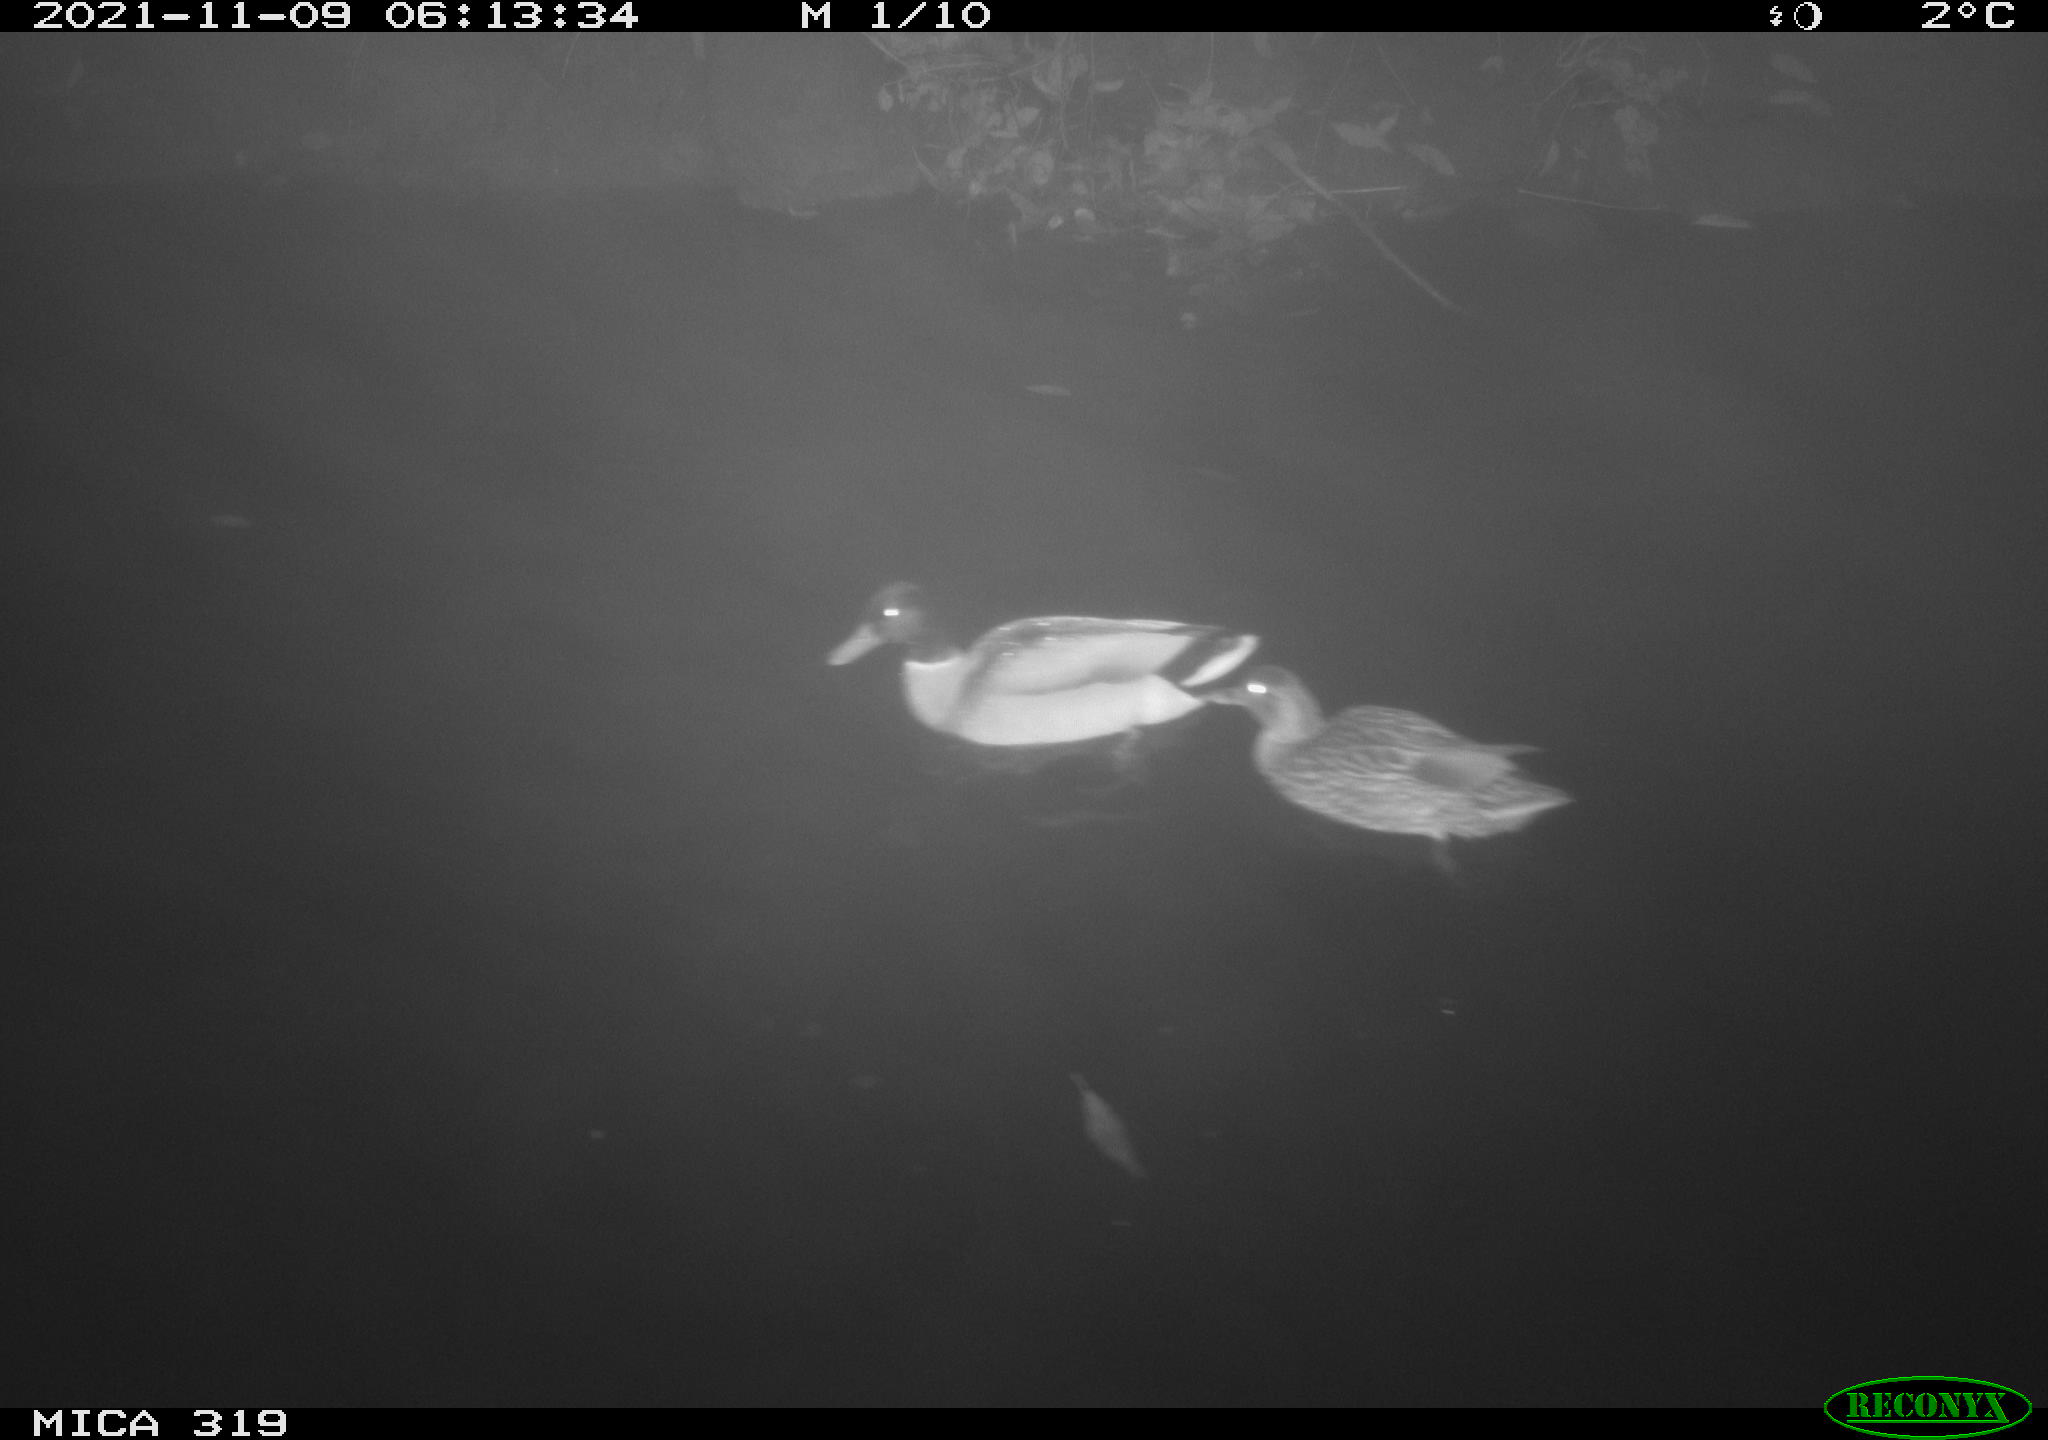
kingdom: Animalia
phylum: Chordata
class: Aves
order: Anseriformes
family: Anatidae
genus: Anas
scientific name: Anas platyrhynchos
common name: Mallard
